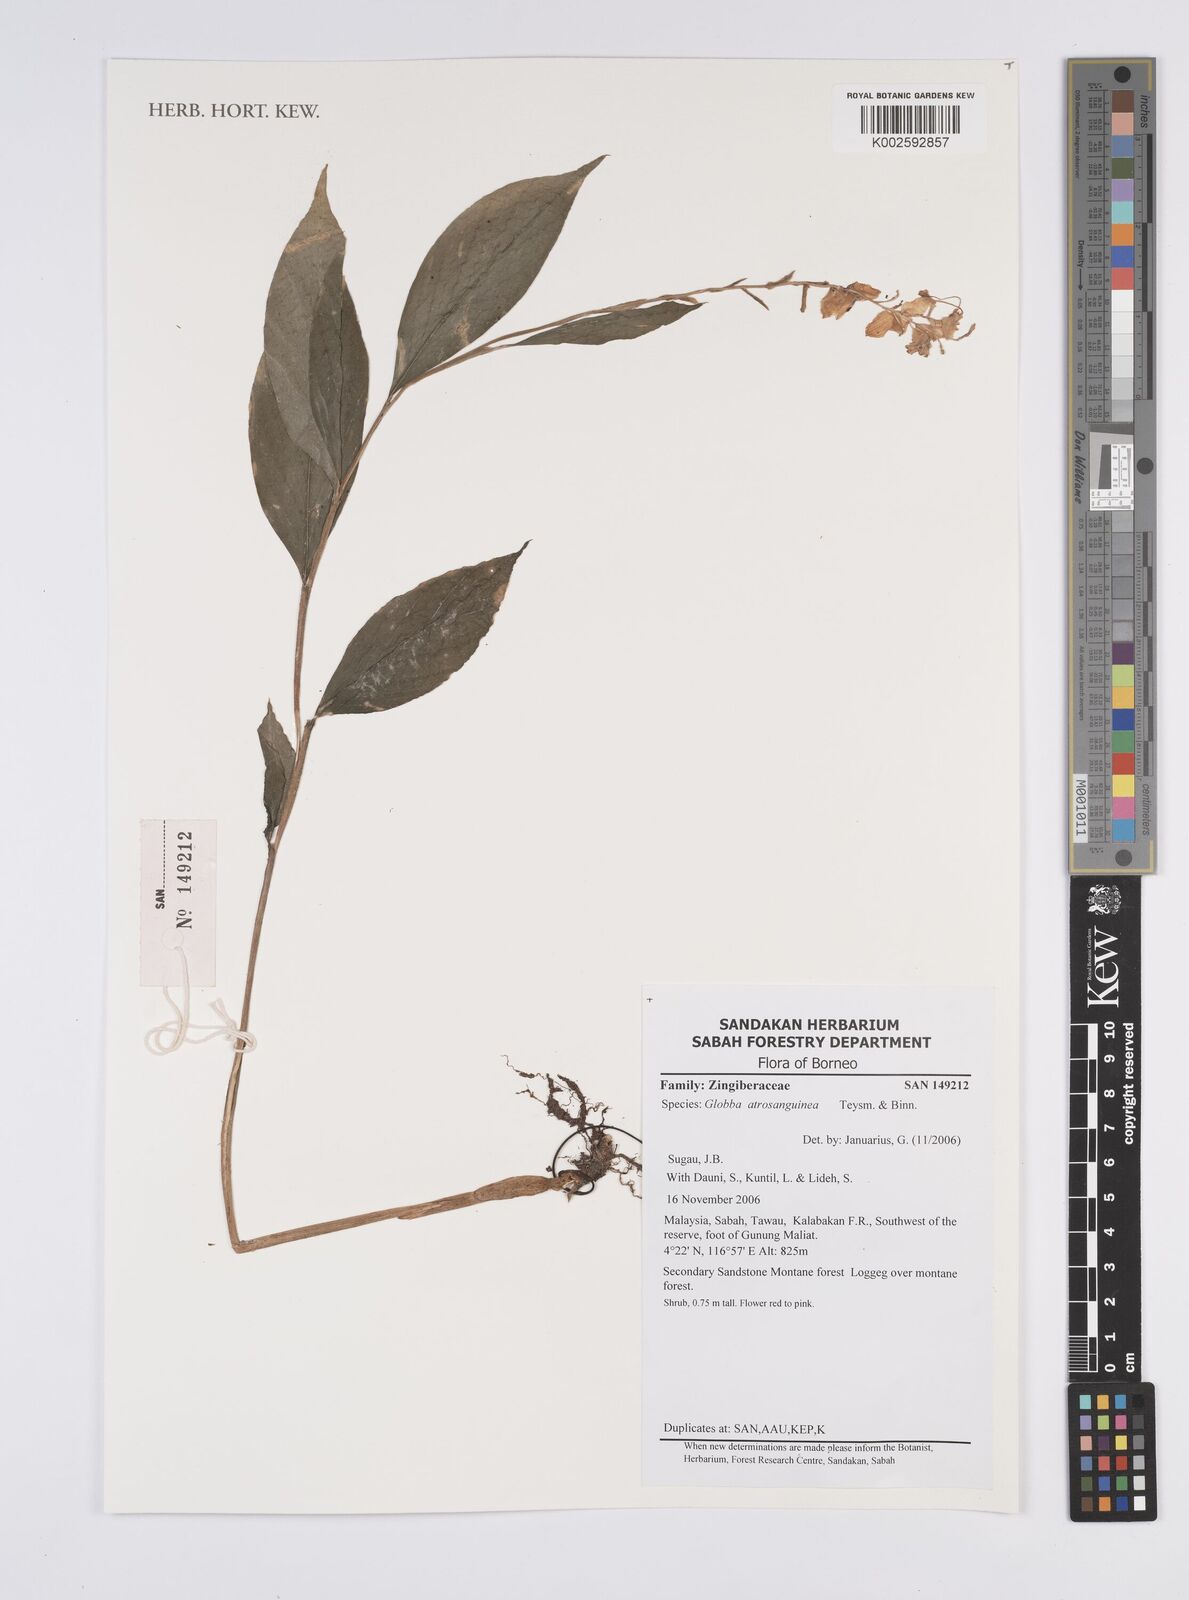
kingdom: Plantae
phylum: Tracheophyta
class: Liliopsida
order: Zingiberales
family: Zingiberaceae
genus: Globba
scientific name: Globba atrosanguinea
